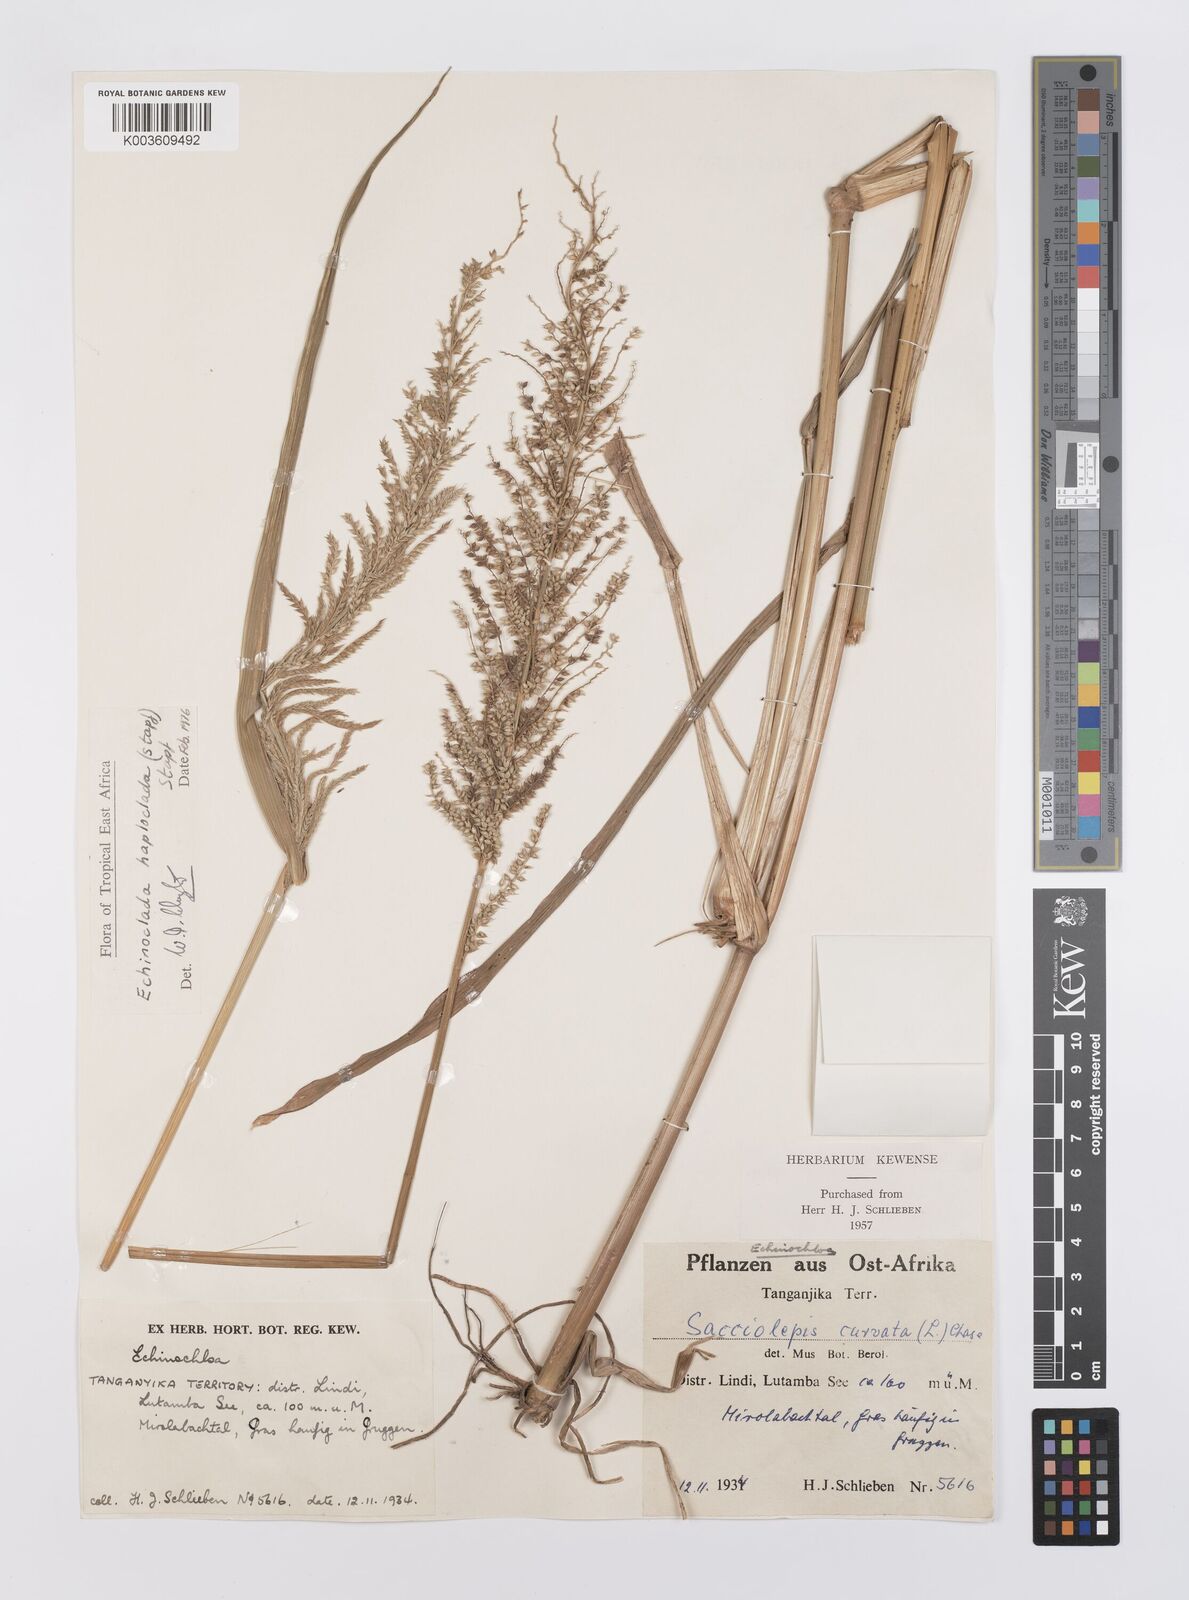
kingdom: Plantae
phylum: Tracheophyta
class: Liliopsida
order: Poales
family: Poaceae
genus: Echinochloa
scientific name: Echinochloa haploclada
